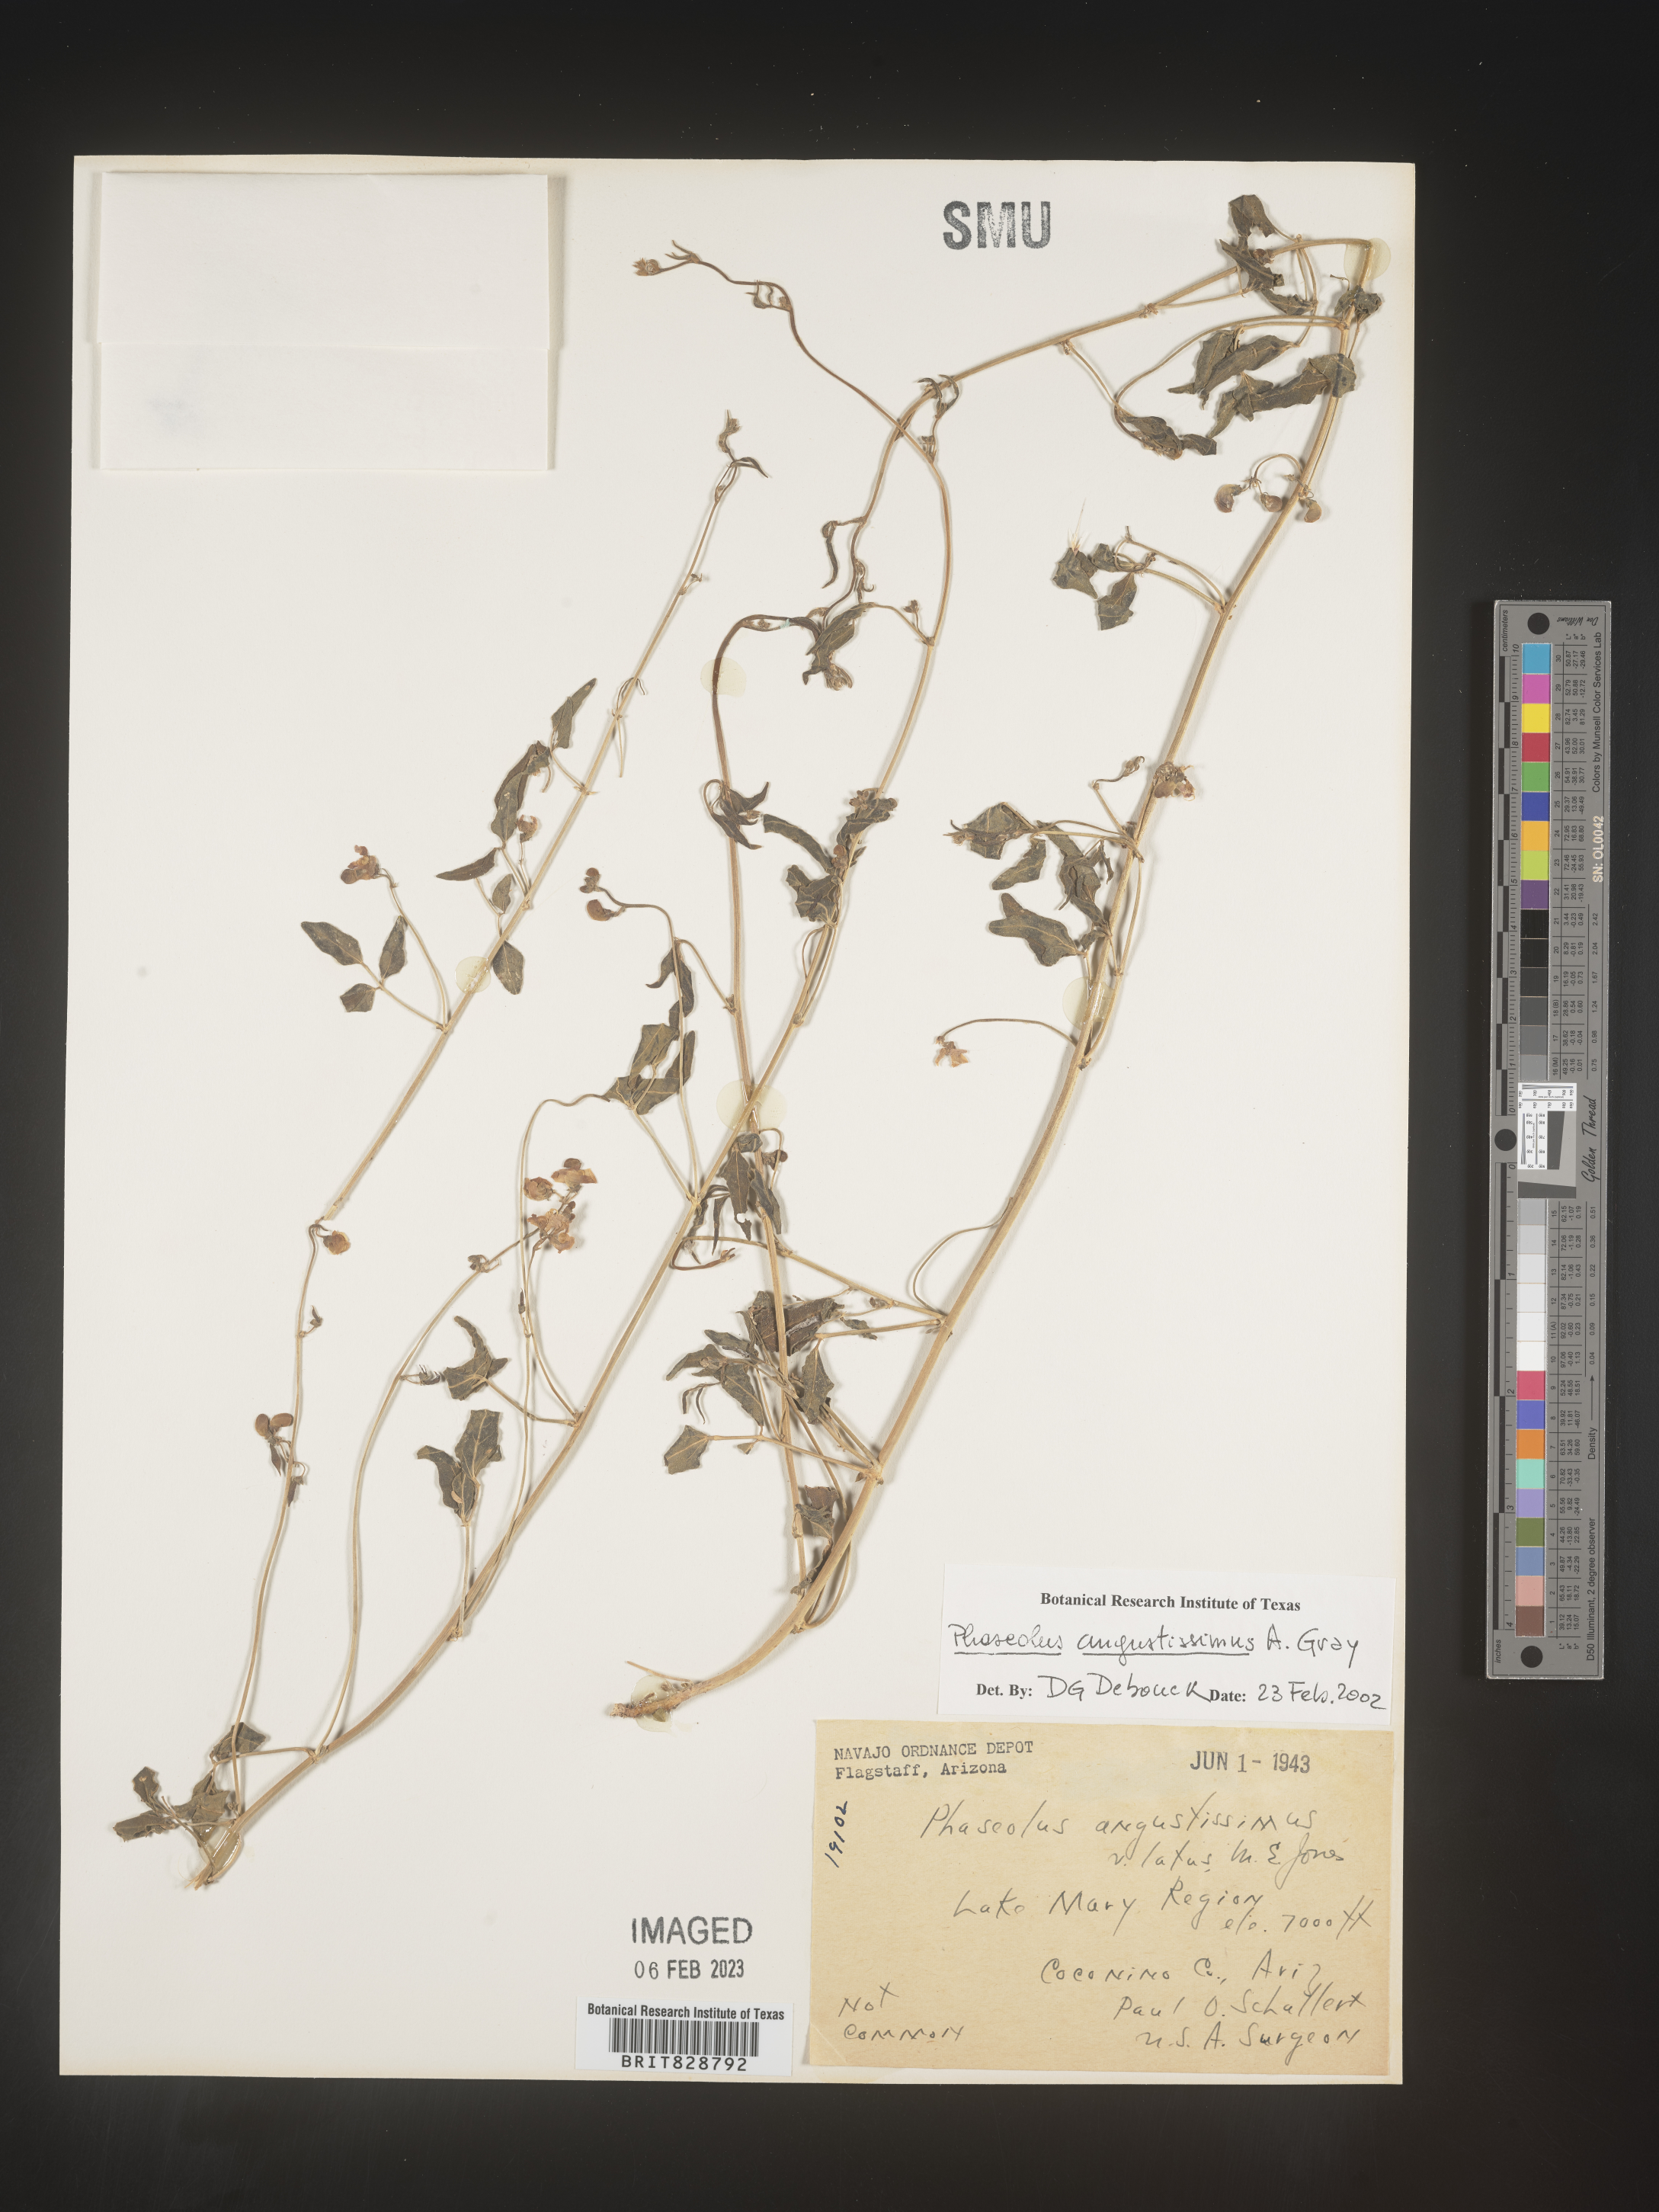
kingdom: Plantae
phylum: Tracheophyta
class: Magnoliopsida
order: Fabales
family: Fabaceae
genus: Phaseolus
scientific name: Phaseolus
